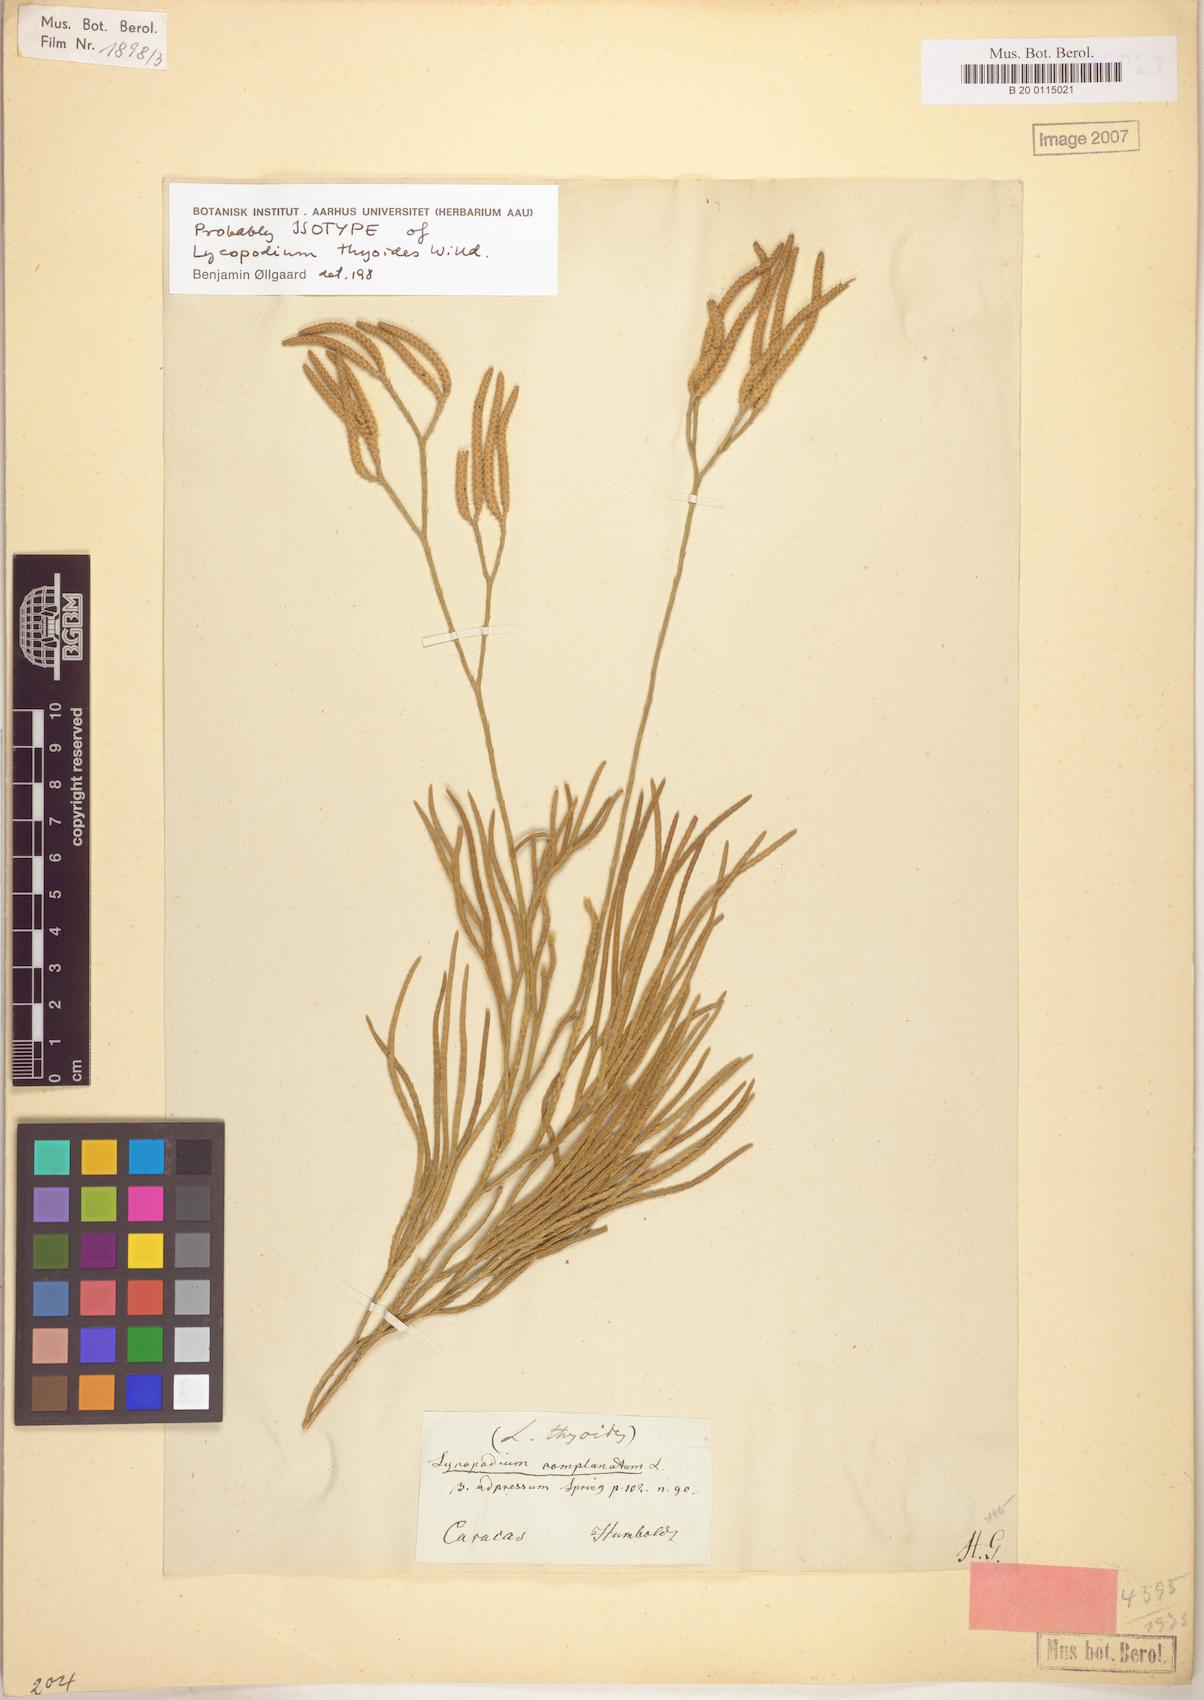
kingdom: Plantae
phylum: Tracheophyta
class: Lycopodiopsida
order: Lycopodiales
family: Lycopodiaceae
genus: Diphasiastrum
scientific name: Diphasiastrum thyoides
